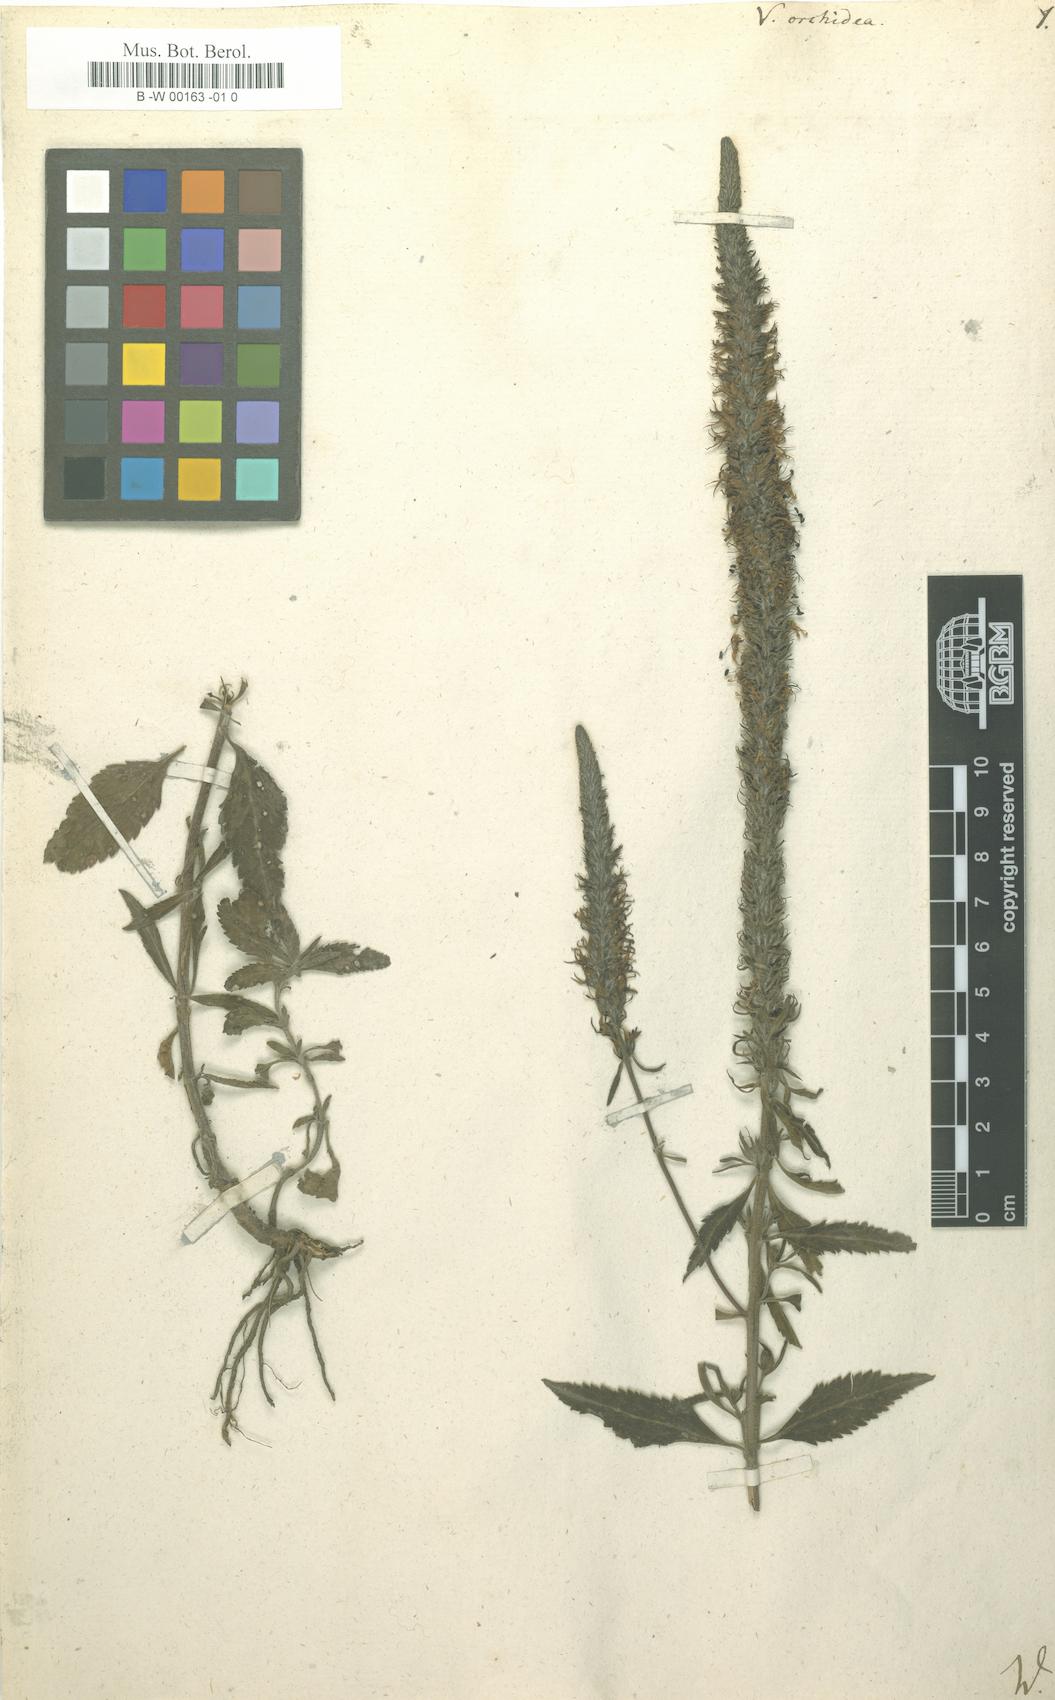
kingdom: Plantae
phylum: Tracheophyta
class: Magnoliopsida
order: Lamiales
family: Plantaginaceae
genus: Veronica
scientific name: Veronica orchidea
